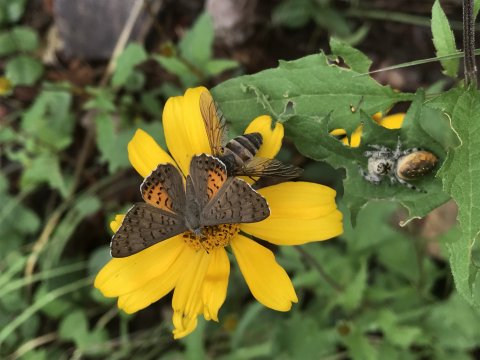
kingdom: Animalia
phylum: Arthropoda
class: Insecta
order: Lepidoptera
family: Sesiidae
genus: Sesia
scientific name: Sesia Emesis ares
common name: Ares Metalmark
